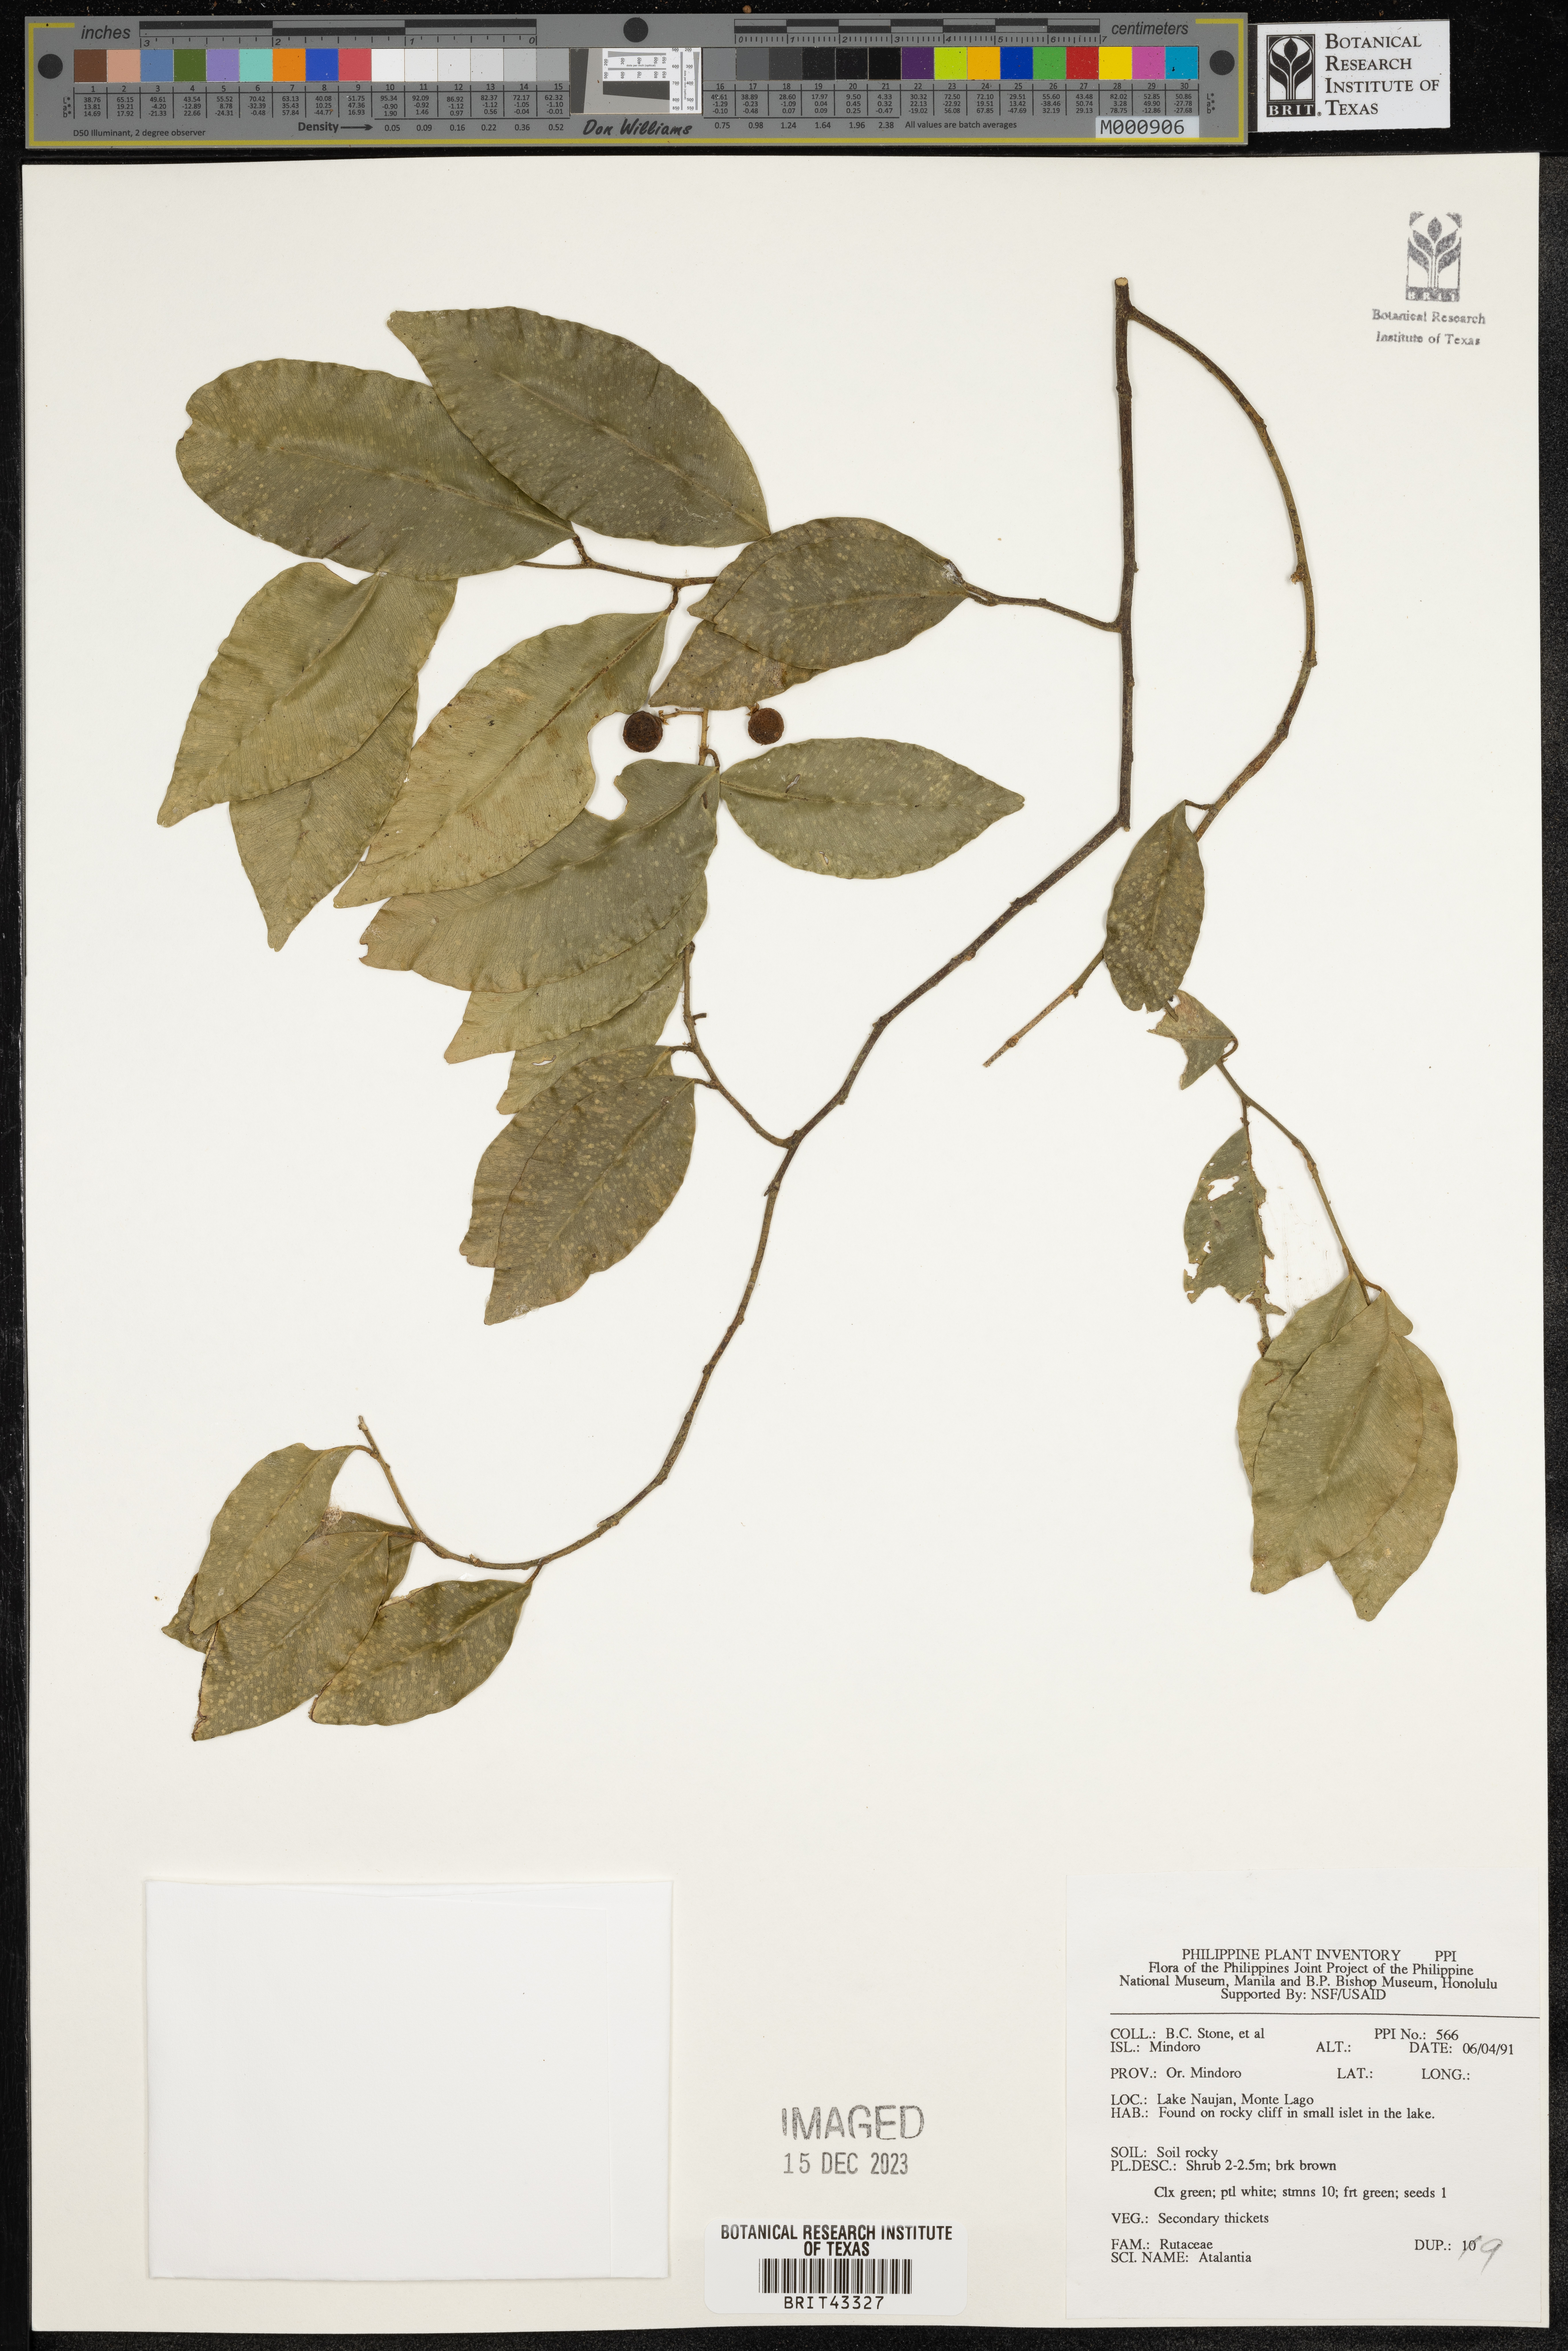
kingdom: Plantae
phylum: Tracheophyta
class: Magnoliopsida
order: Sapindales
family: Rutaceae
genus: Atalantia
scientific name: Atalantia
